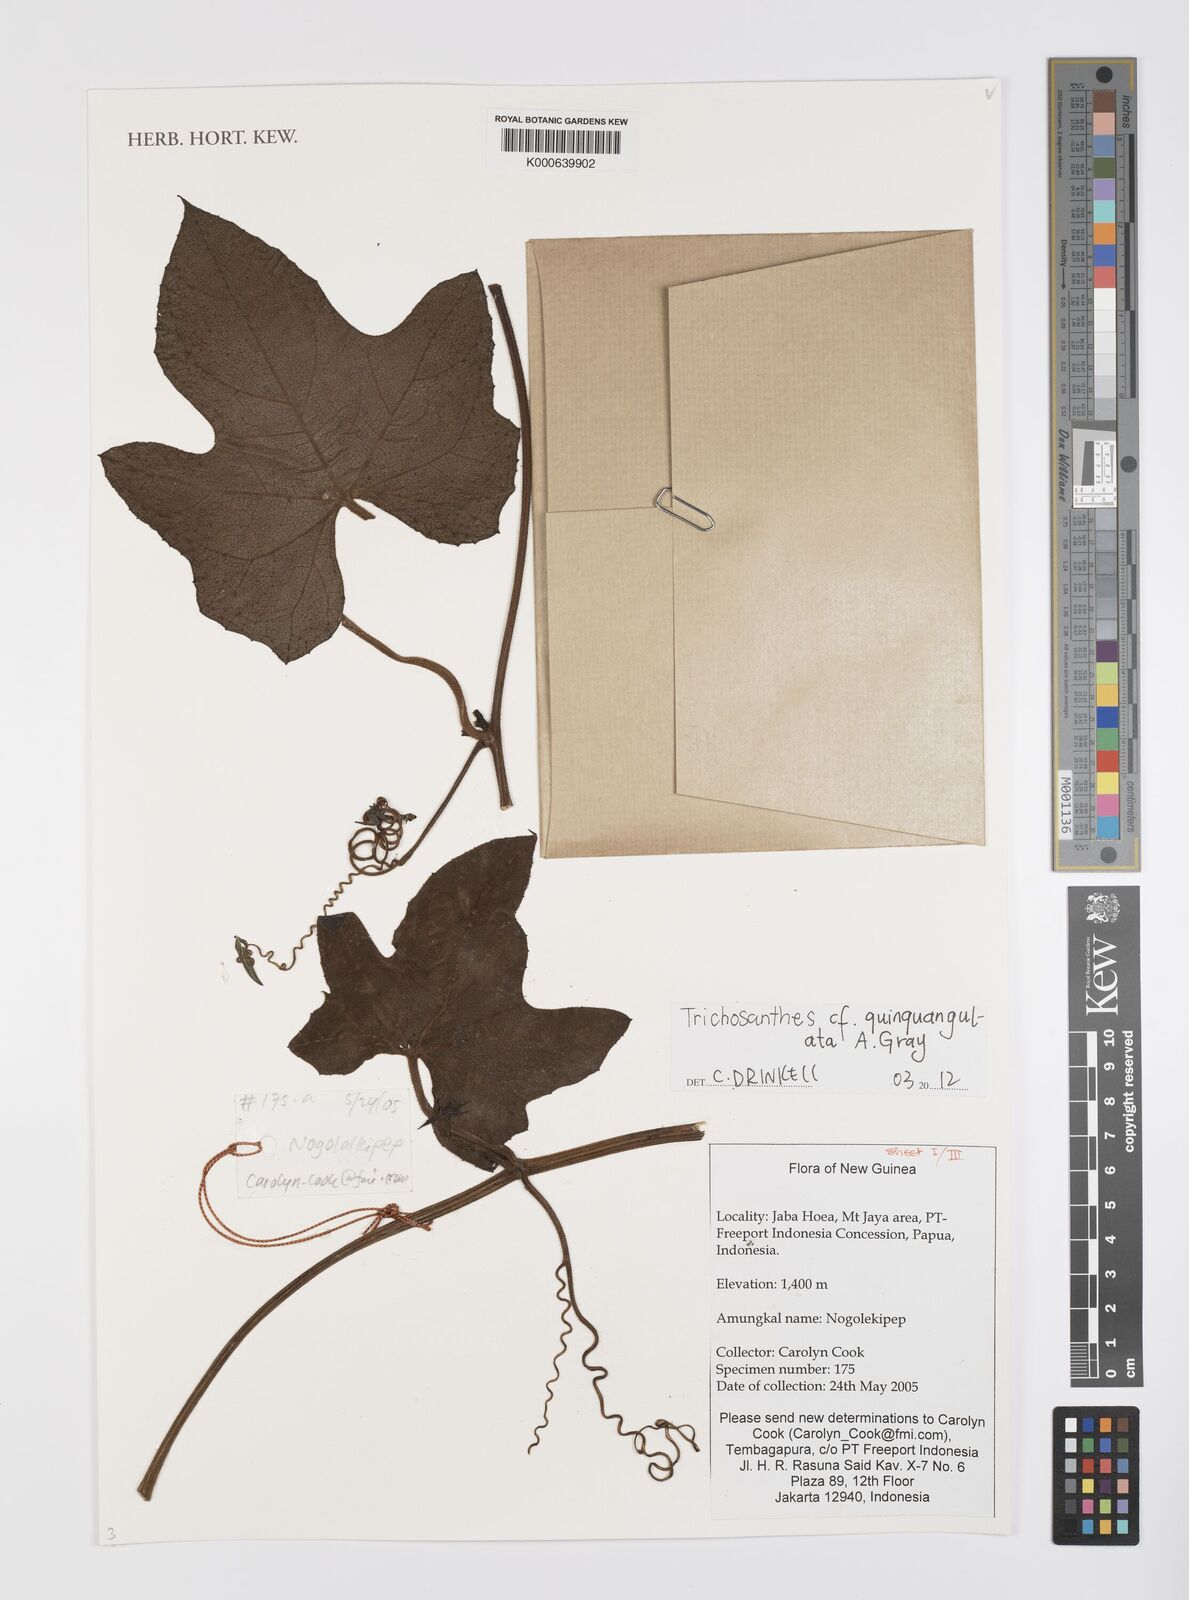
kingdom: Plantae
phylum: Tracheophyta
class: Magnoliopsida
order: Cucurbitales
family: Cucurbitaceae
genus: Trichosanthes
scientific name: Trichosanthes quinquangulata
